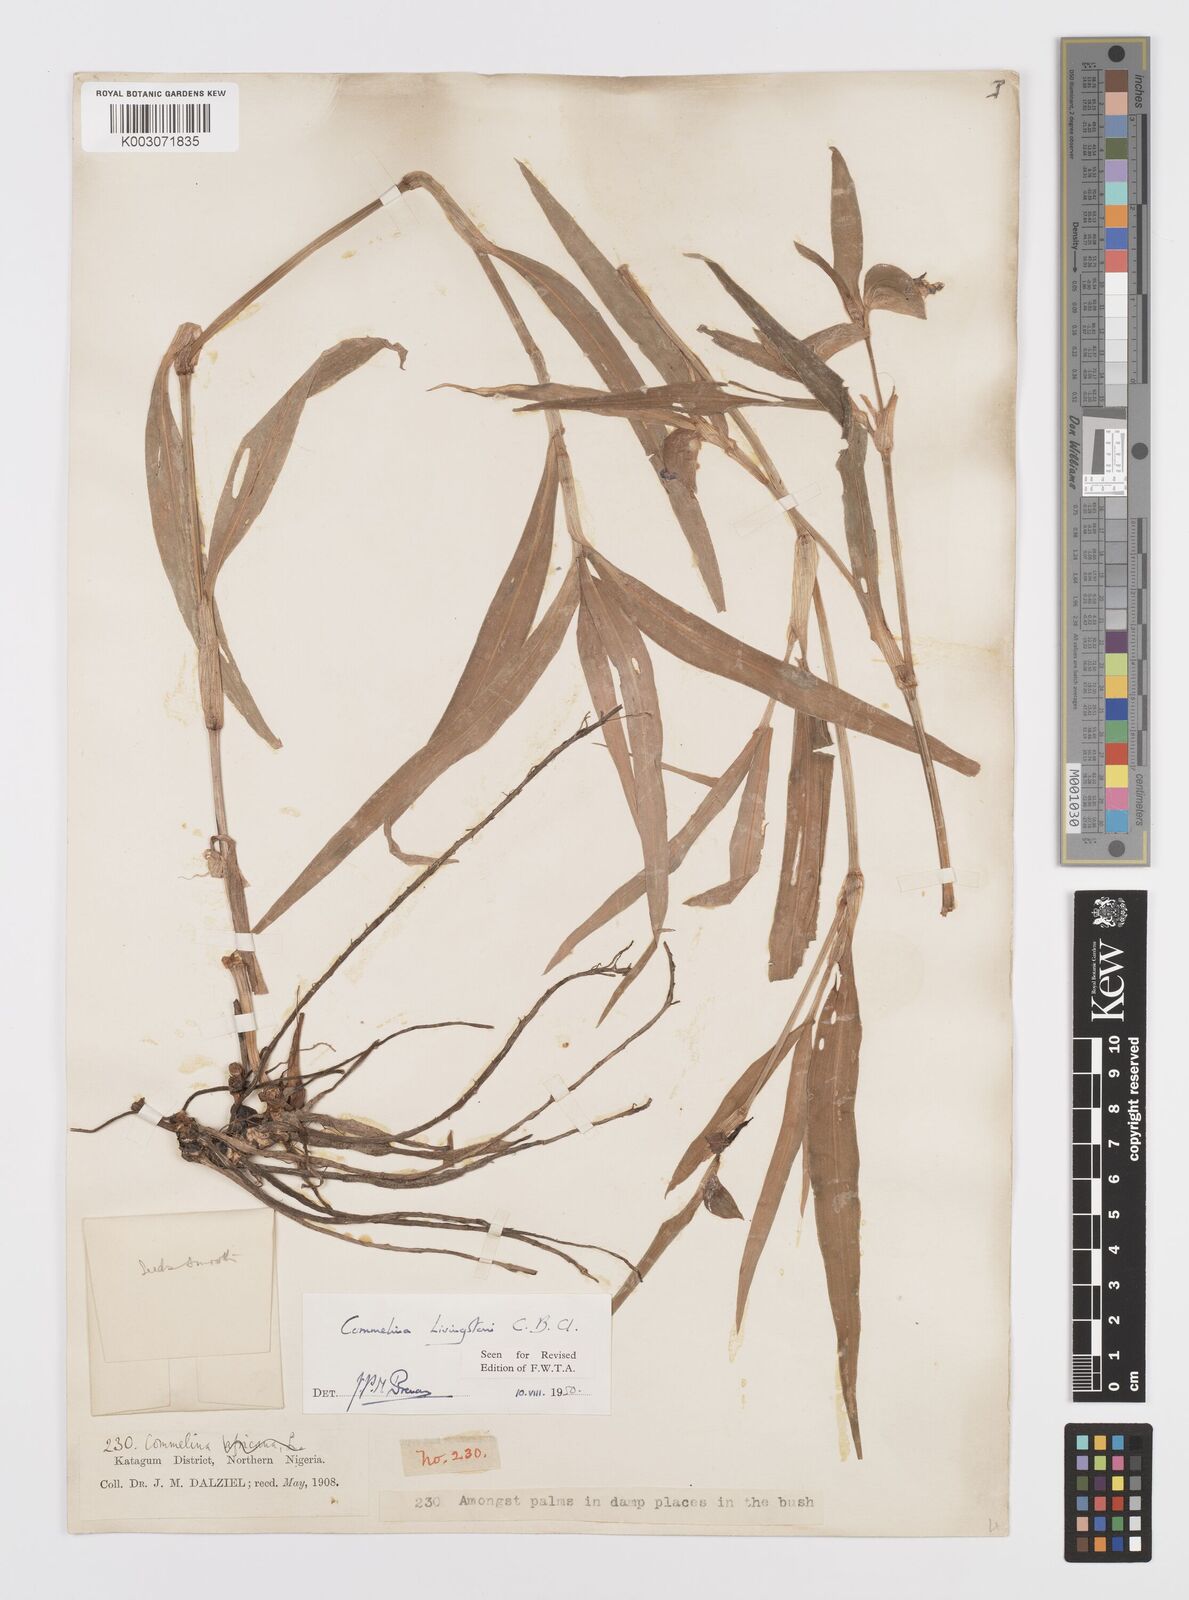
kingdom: Plantae
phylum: Tracheophyta
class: Liliopsida
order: Commelinales
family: Commelinaceae
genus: Commelina
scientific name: Commelina erecta
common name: Blousel blommetjie
